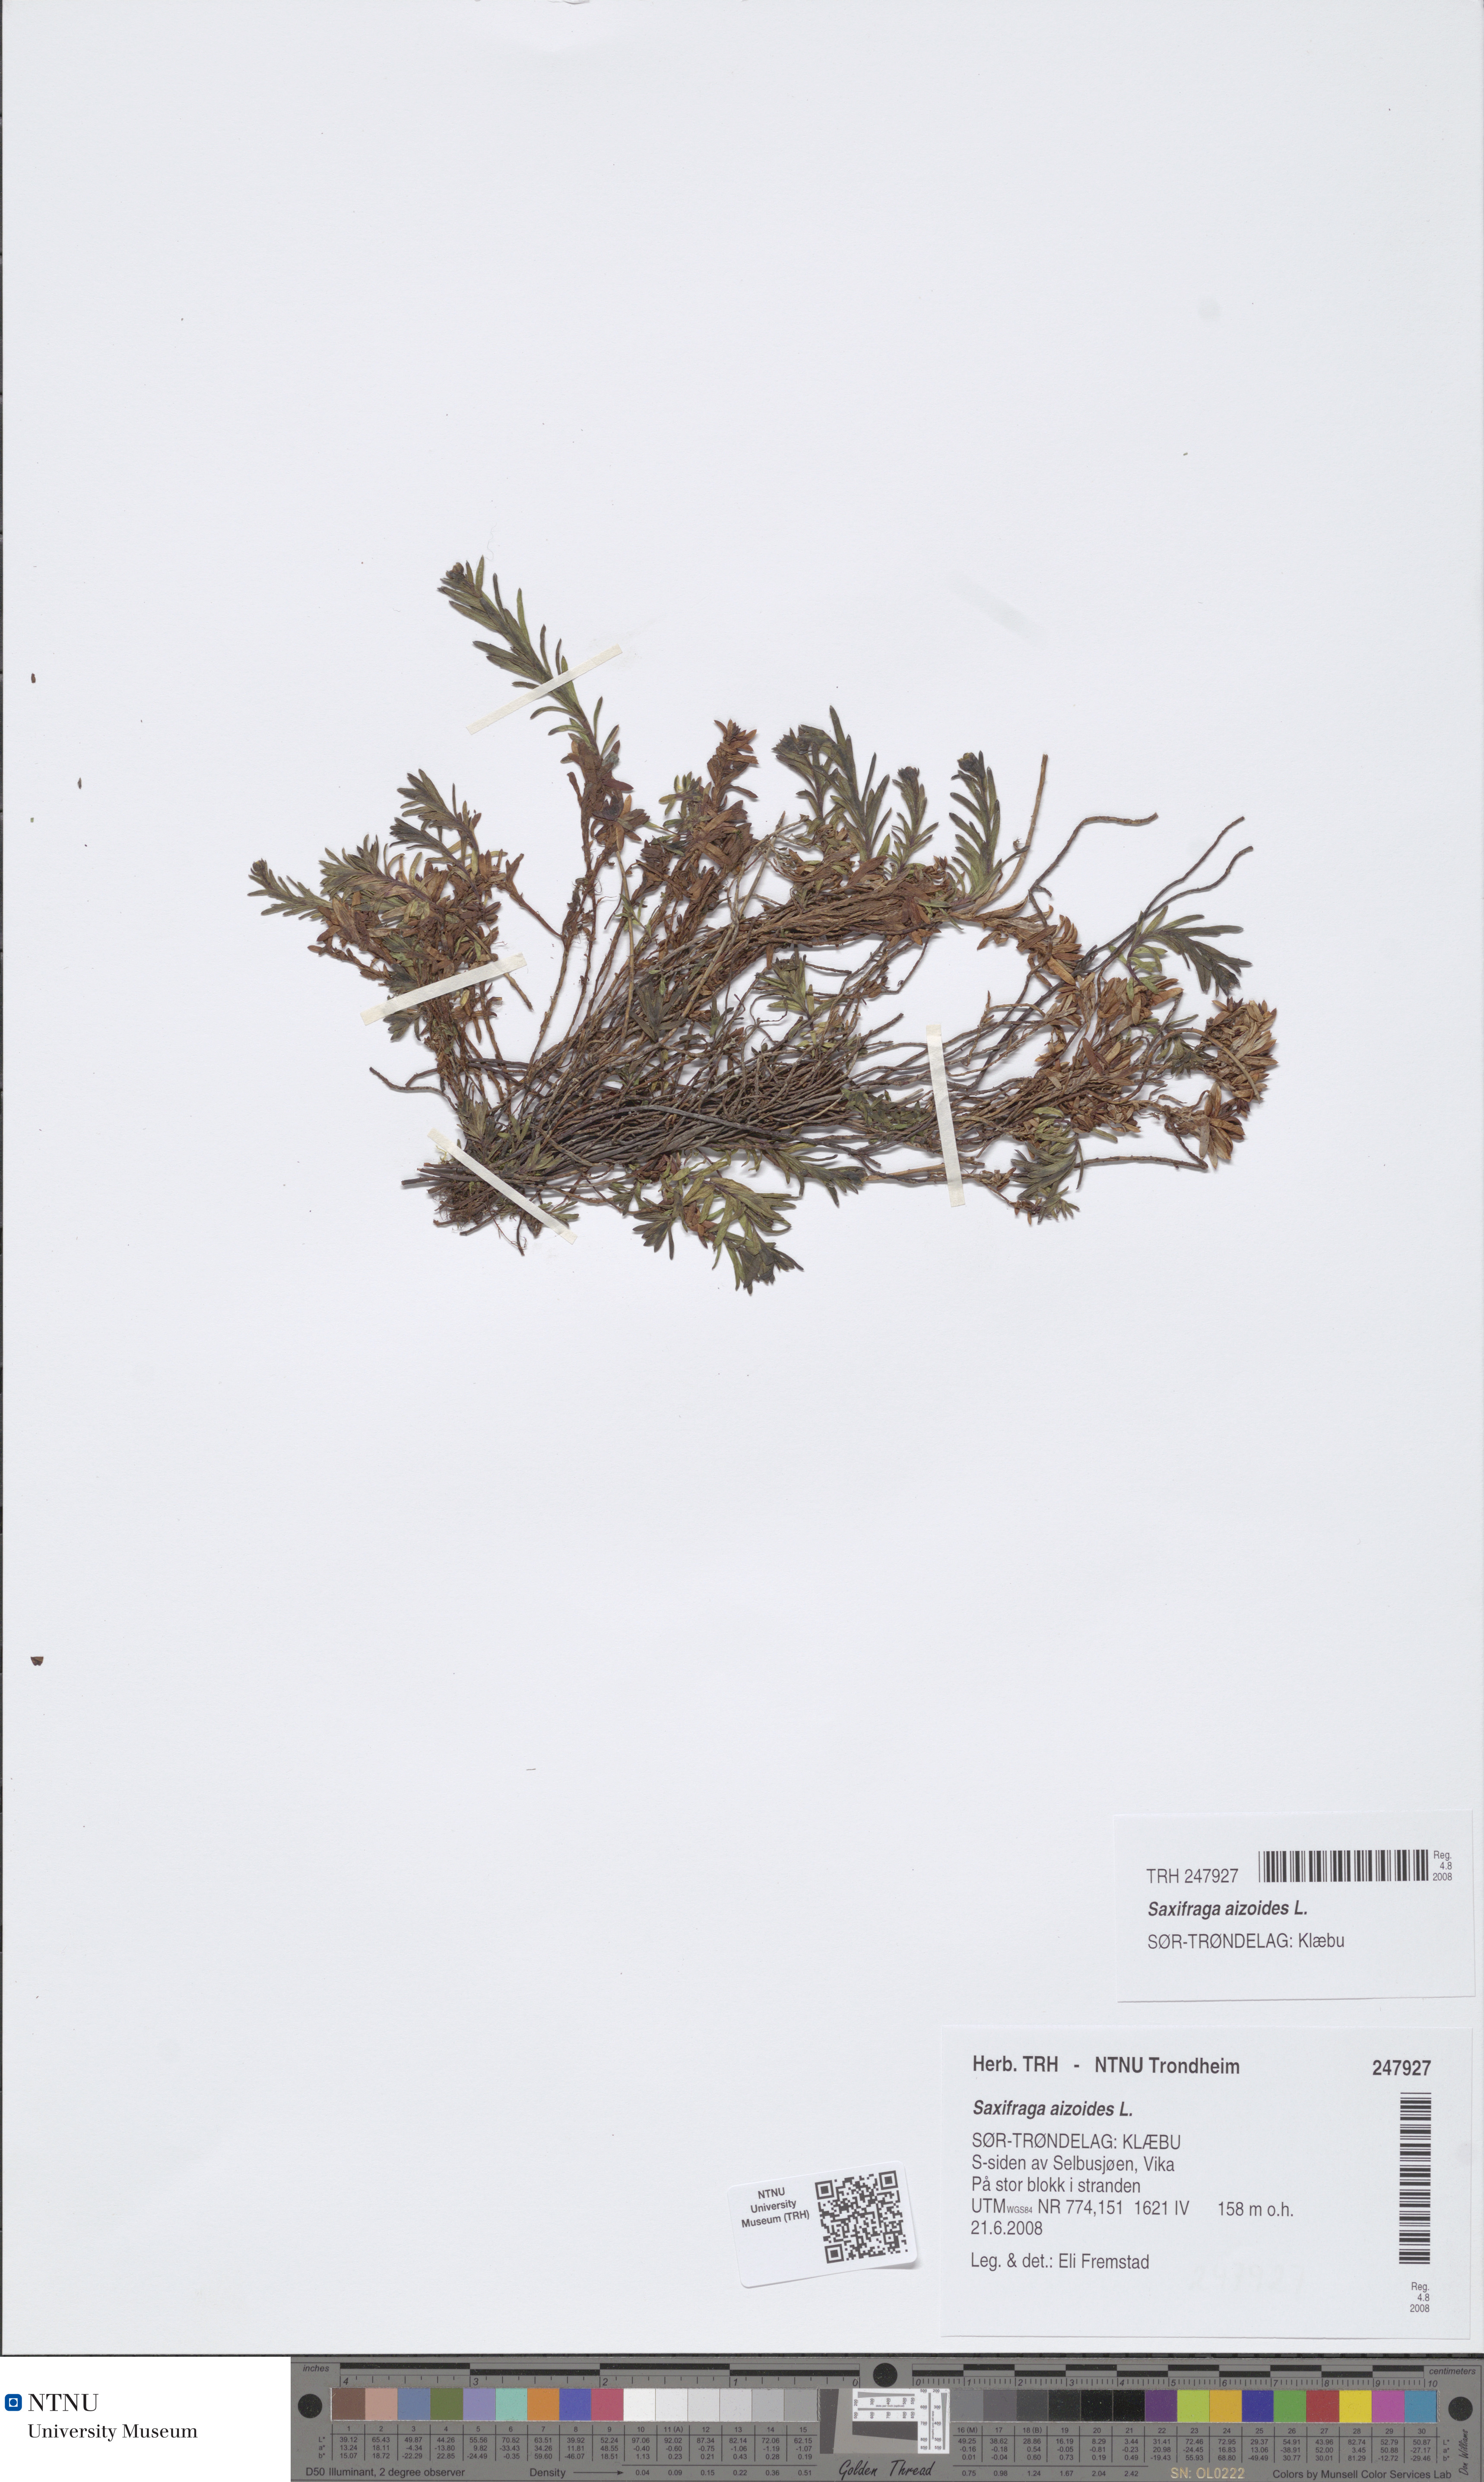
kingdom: Plantae
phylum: Tracheophyta
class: Magnoliopsida
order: Saxifragales
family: Saxifragaceae
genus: Saxifraga
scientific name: Saxifraga aizoides
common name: Yellow mountain saxifrage
